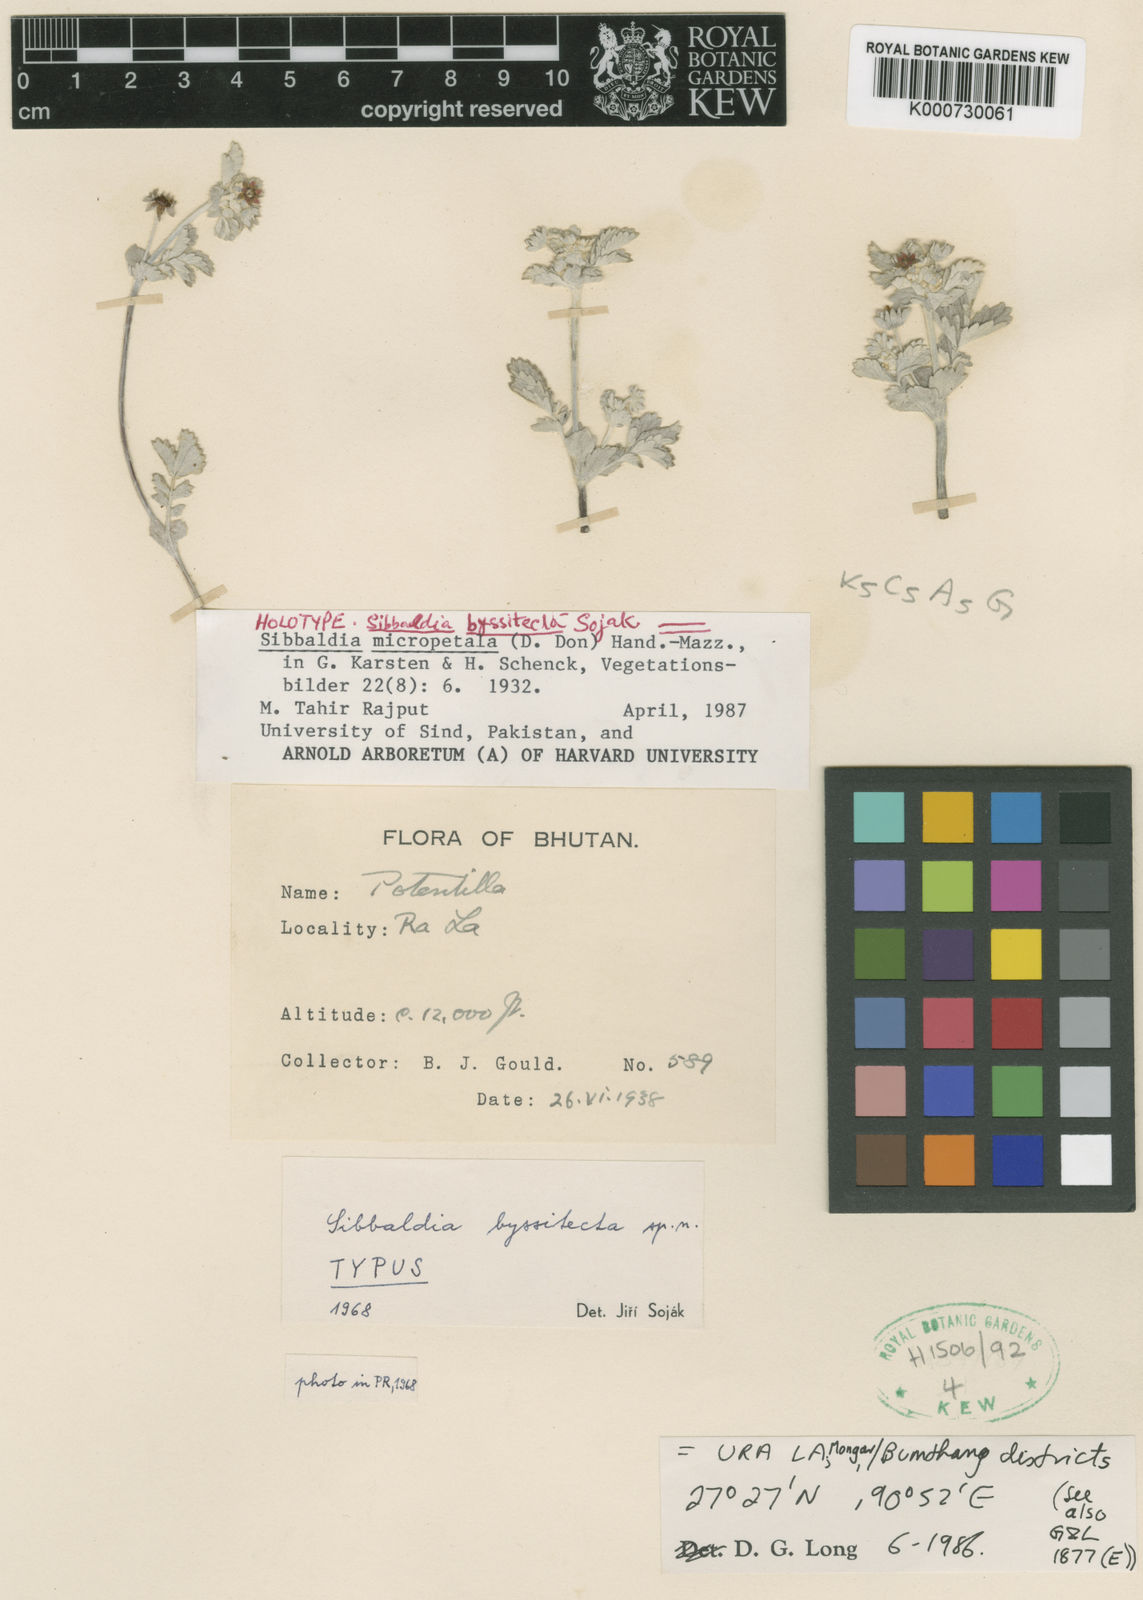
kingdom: Plantae
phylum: Tracheophyta
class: Magnoliopsida
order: Rosales
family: Rosaceae
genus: Sibbaldia
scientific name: Sibbaldia
